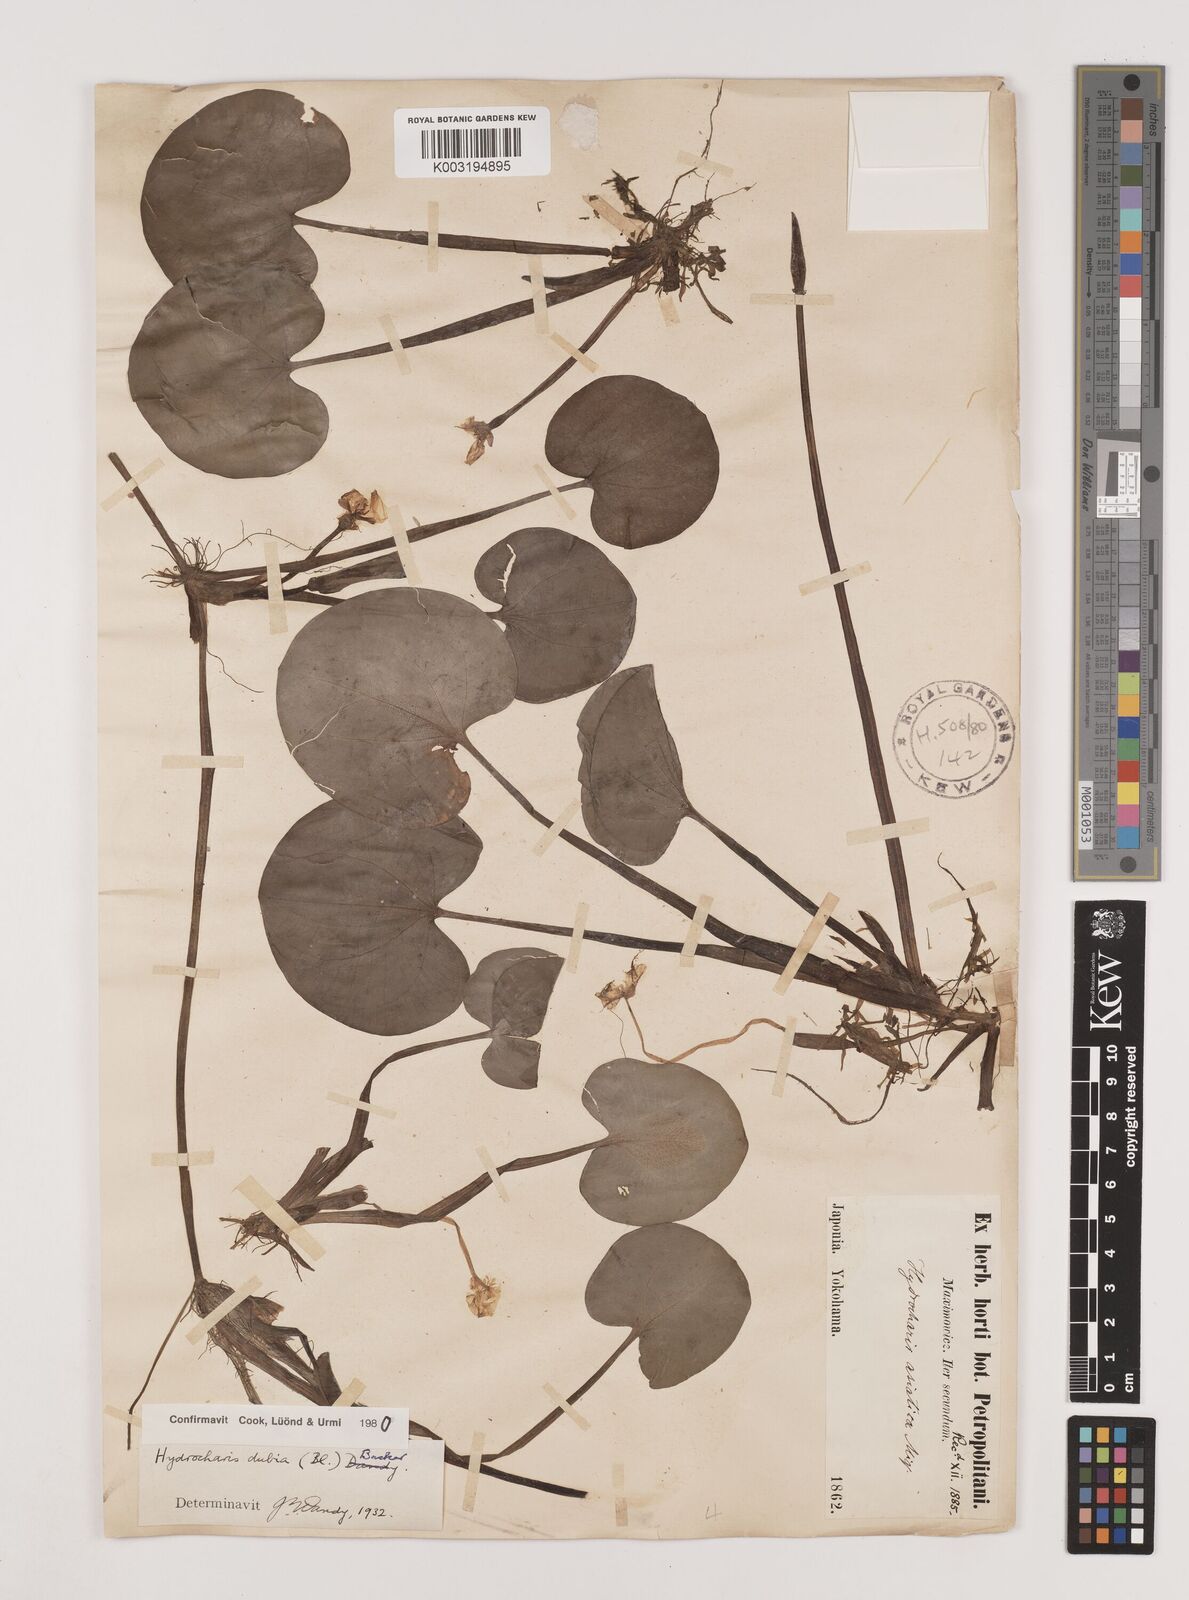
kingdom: Plantae
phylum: Tracheophyta
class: Liliopsida
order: Alismatales
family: Hydrocharitaceae
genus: Hydrocharis
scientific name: Hydrocharis dubia
